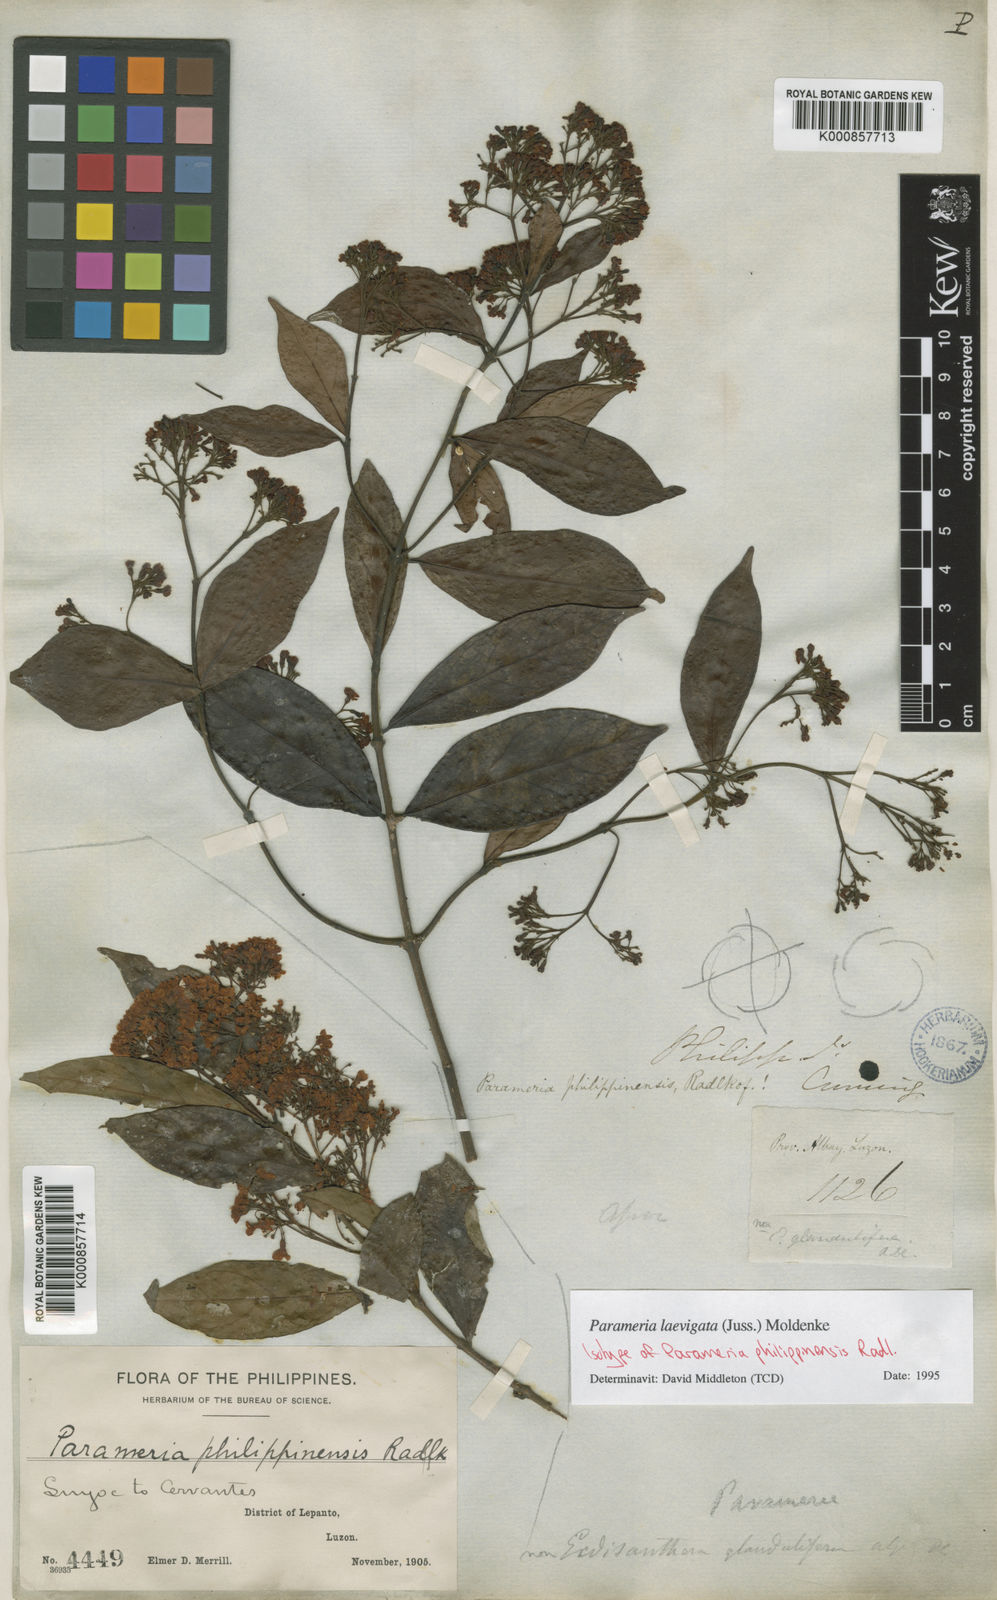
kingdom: Plantae
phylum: Tracheophyta
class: Magnoliopsida
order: Gentianales
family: Apocynaceae
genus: Urceola
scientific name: Urceola laevigata
